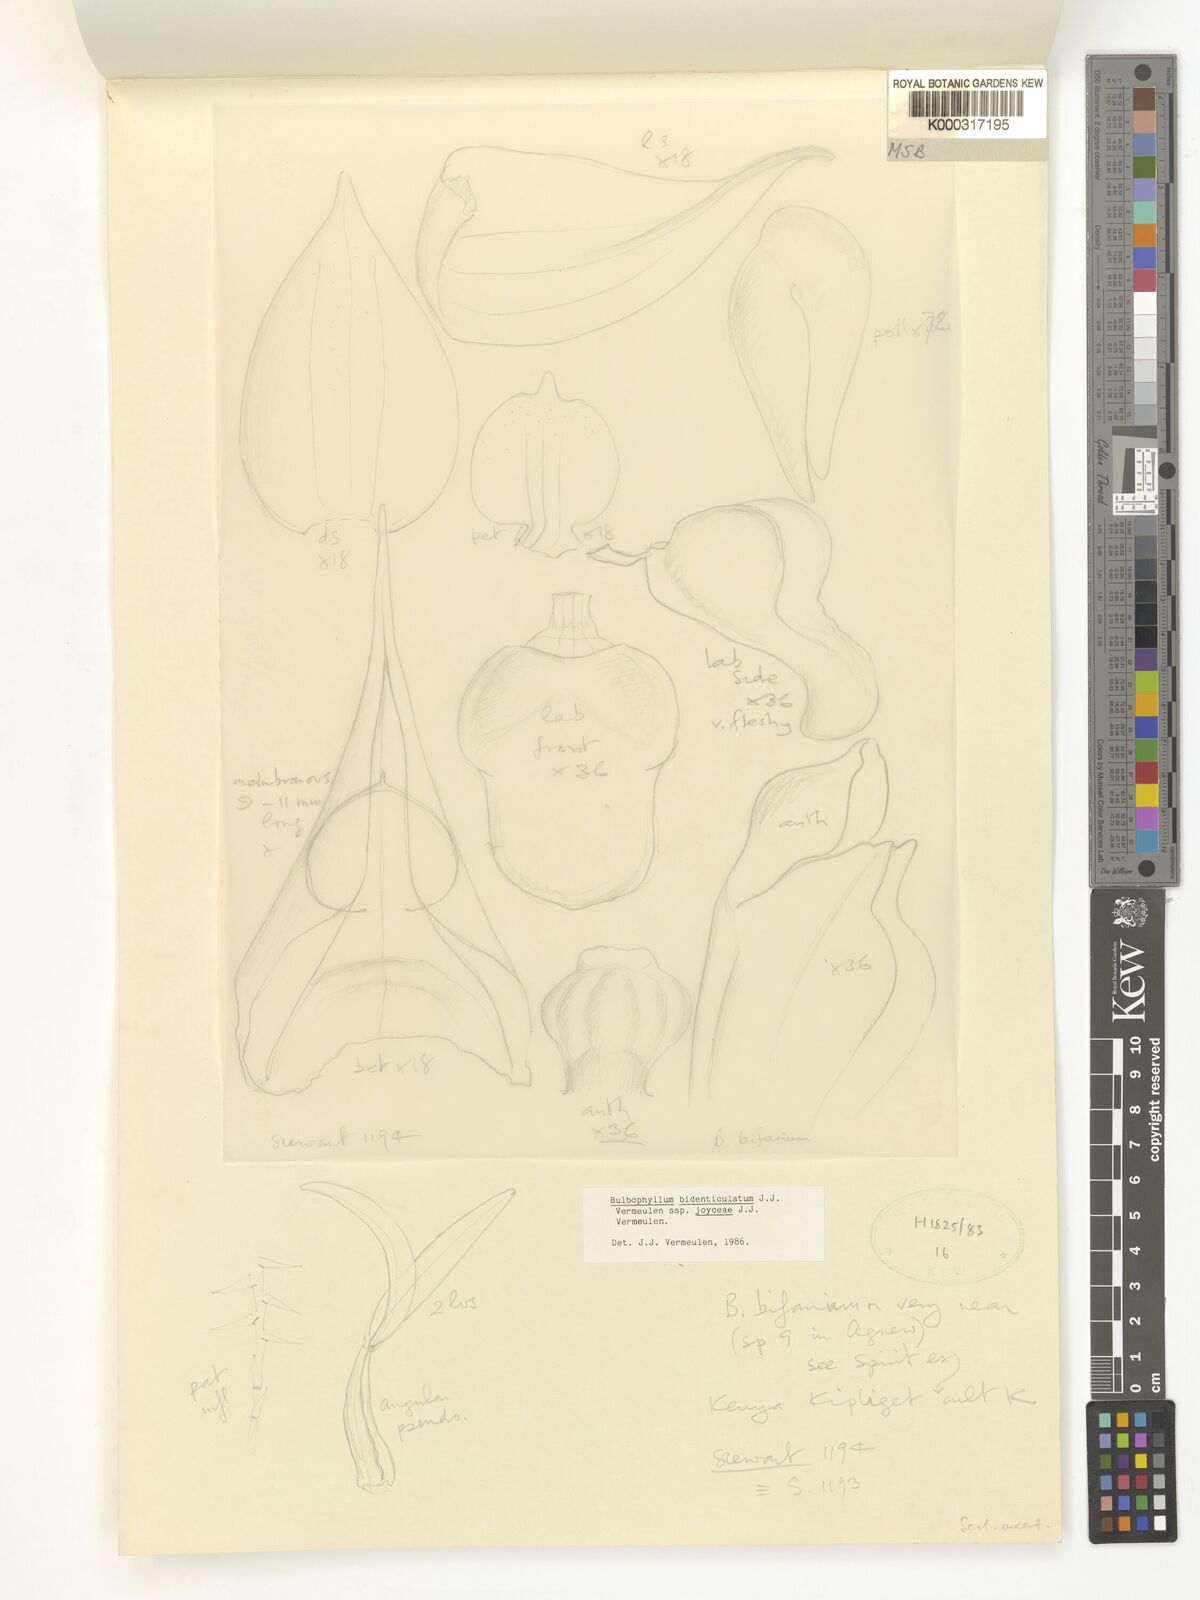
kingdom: Plantae
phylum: Tracheophyta
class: Liliopsida
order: Asparagales
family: Orchidaceae
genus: Bulbophyllum
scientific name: Bulbophyllum bidenticulatum
